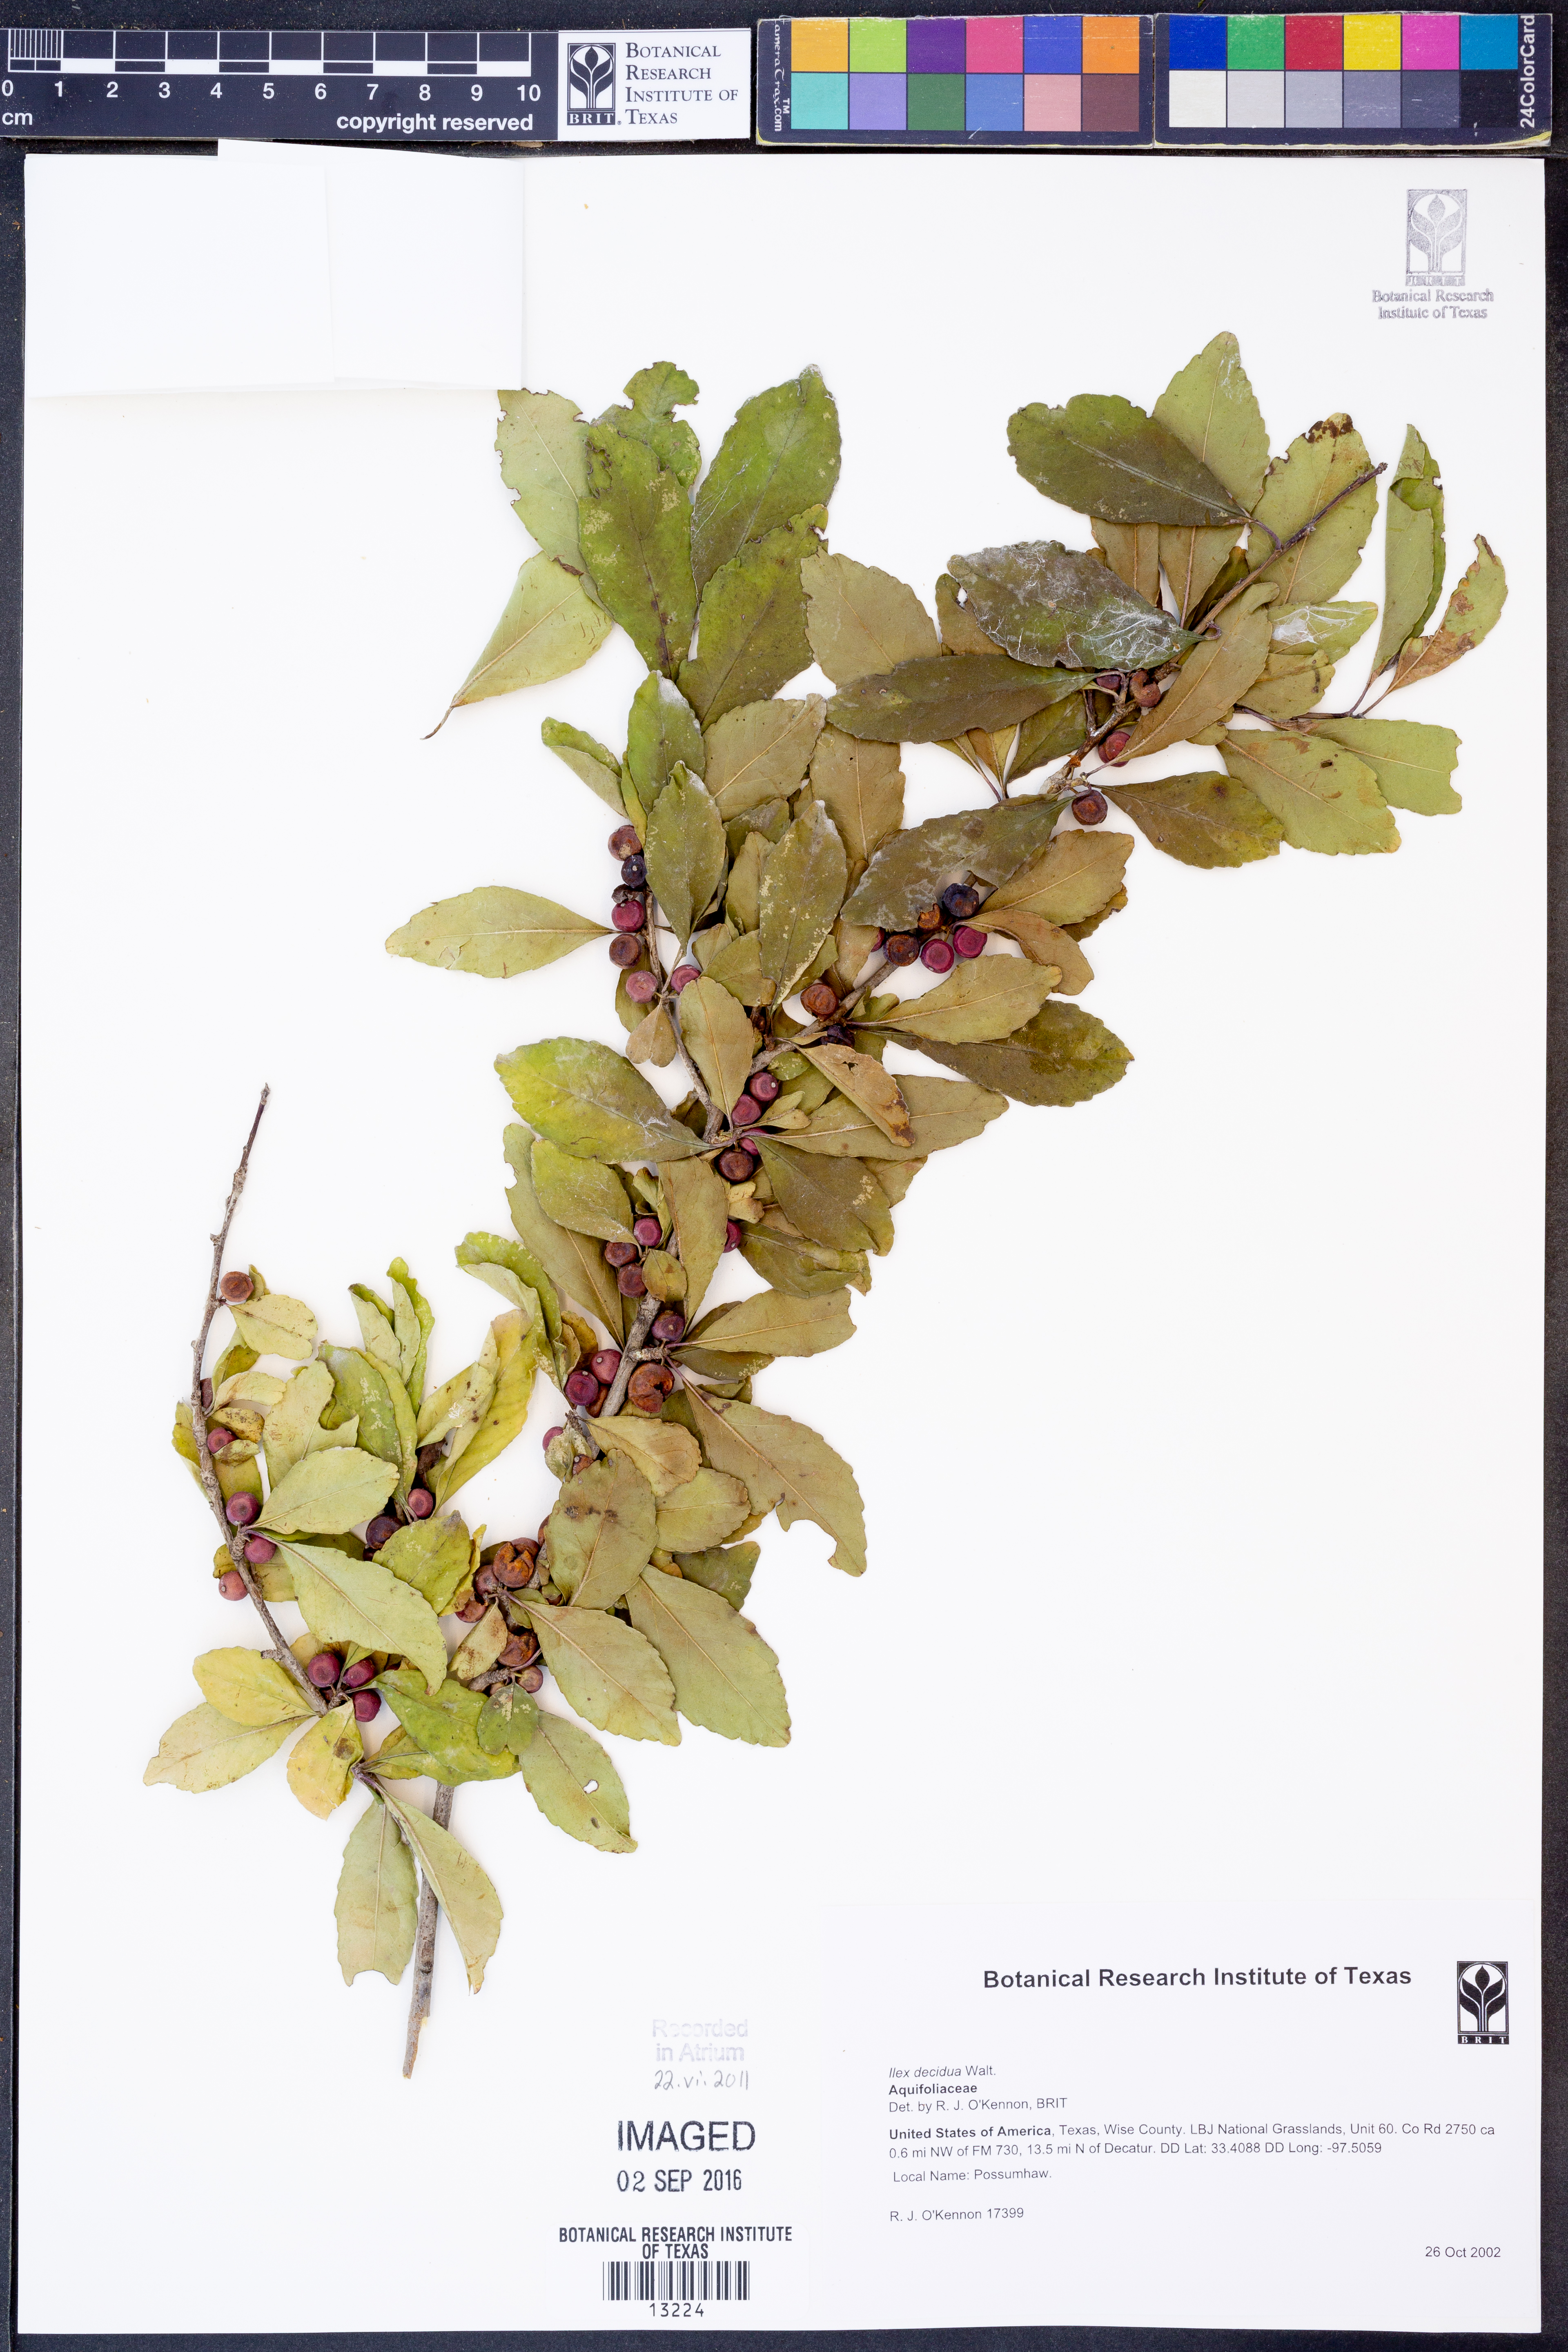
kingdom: Plantae
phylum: Tracheophyta
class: Magnoliopsida
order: Aquifoliales
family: Aquifoliaceae
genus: Ilex
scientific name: Ilex decidua
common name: Possum-haw
